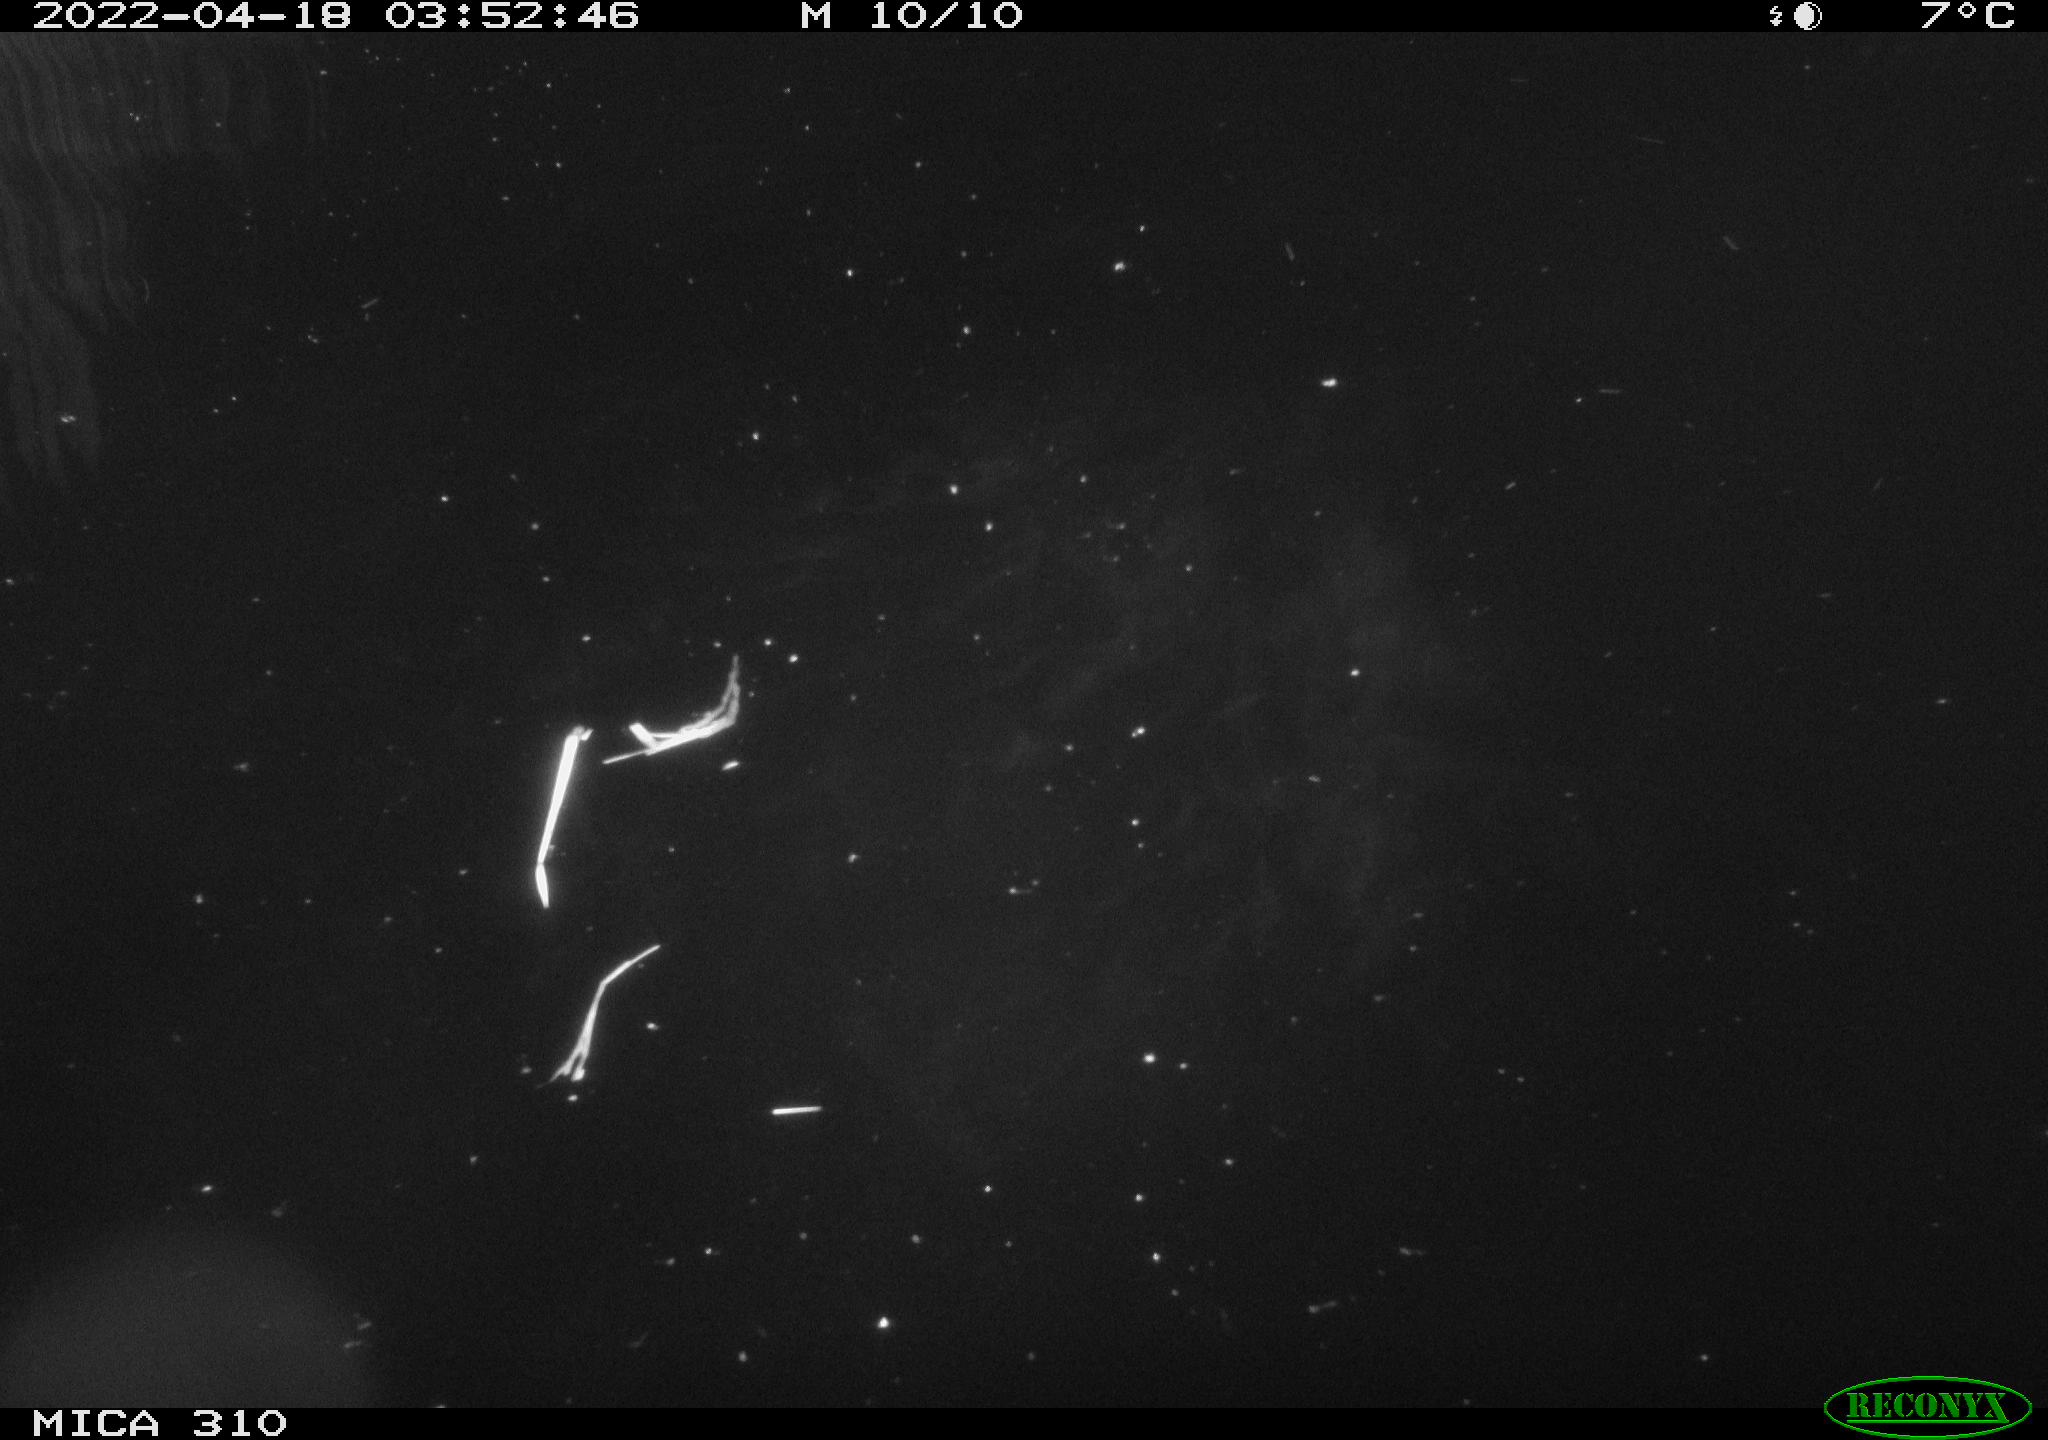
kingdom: Animalia
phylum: Chordata
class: Aves
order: Anseriformes
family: Anatidae
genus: Anas
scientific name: Anas platyrhynchos
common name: Mallard
